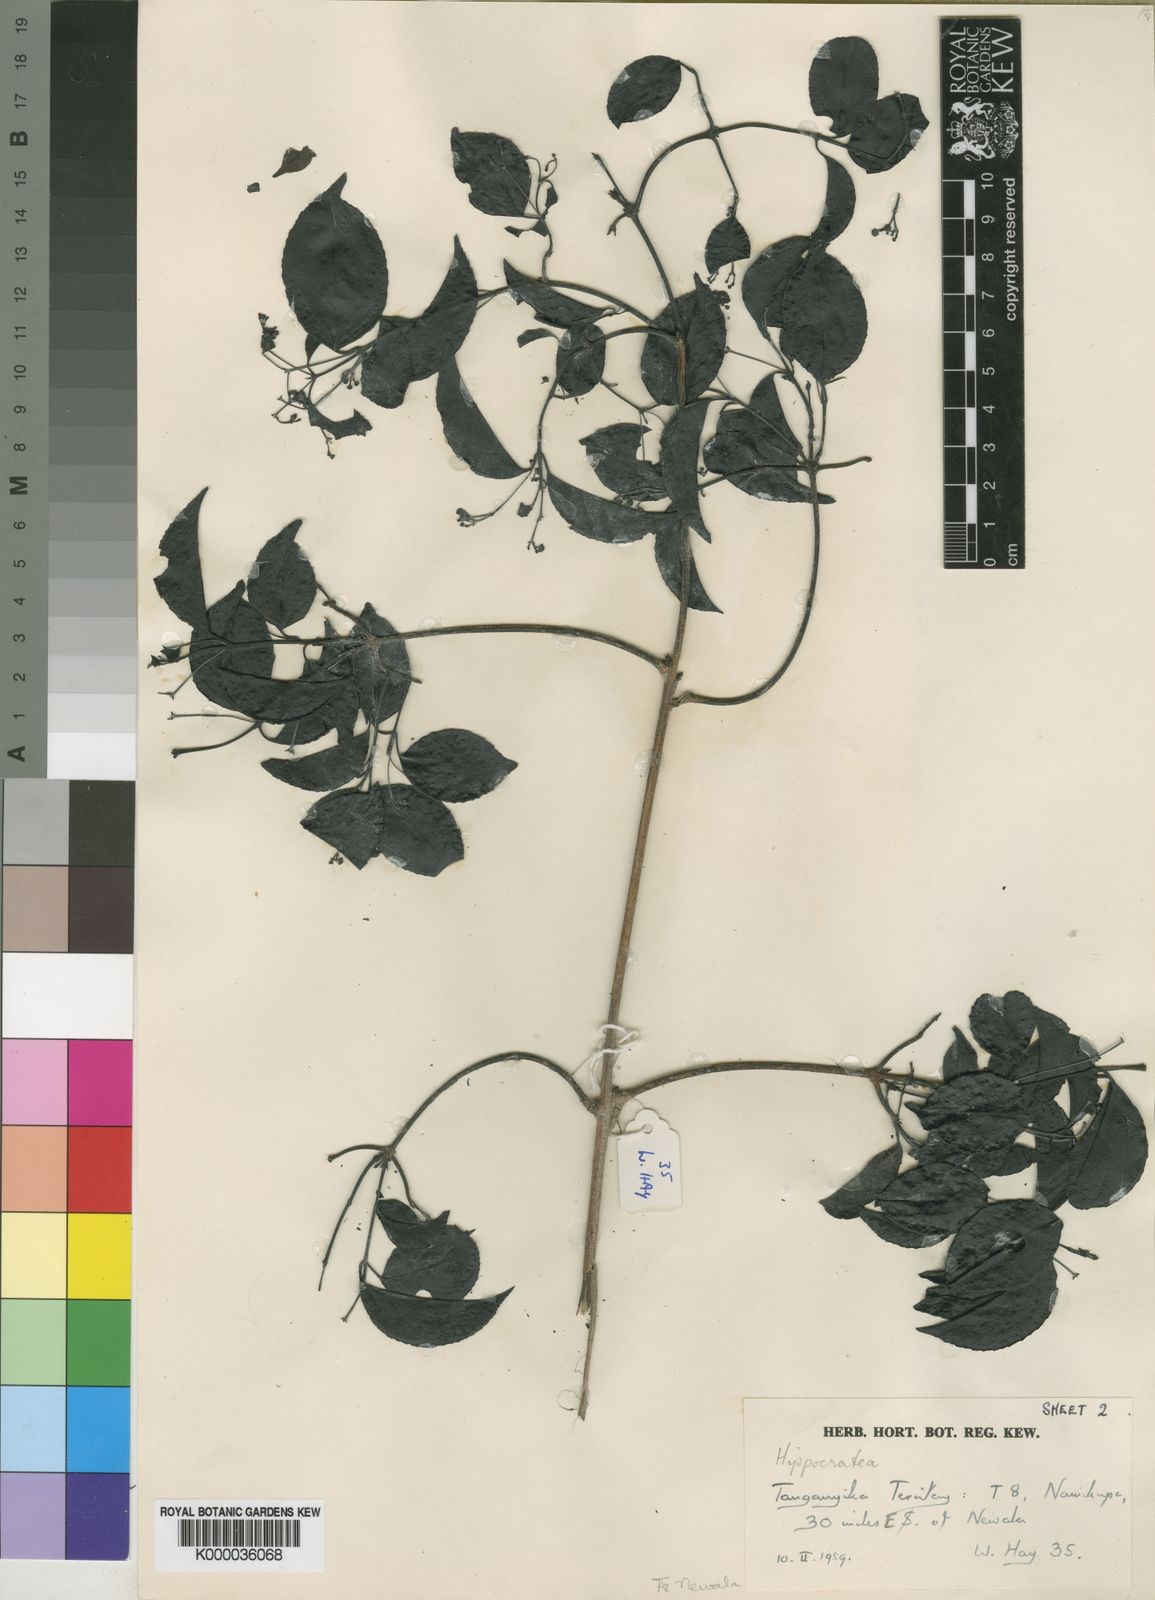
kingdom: Plantae
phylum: Tracheophyta
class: Magnoliopsida
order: Celastrales
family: Celastraceae
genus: Pristimera
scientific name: Pristimera
